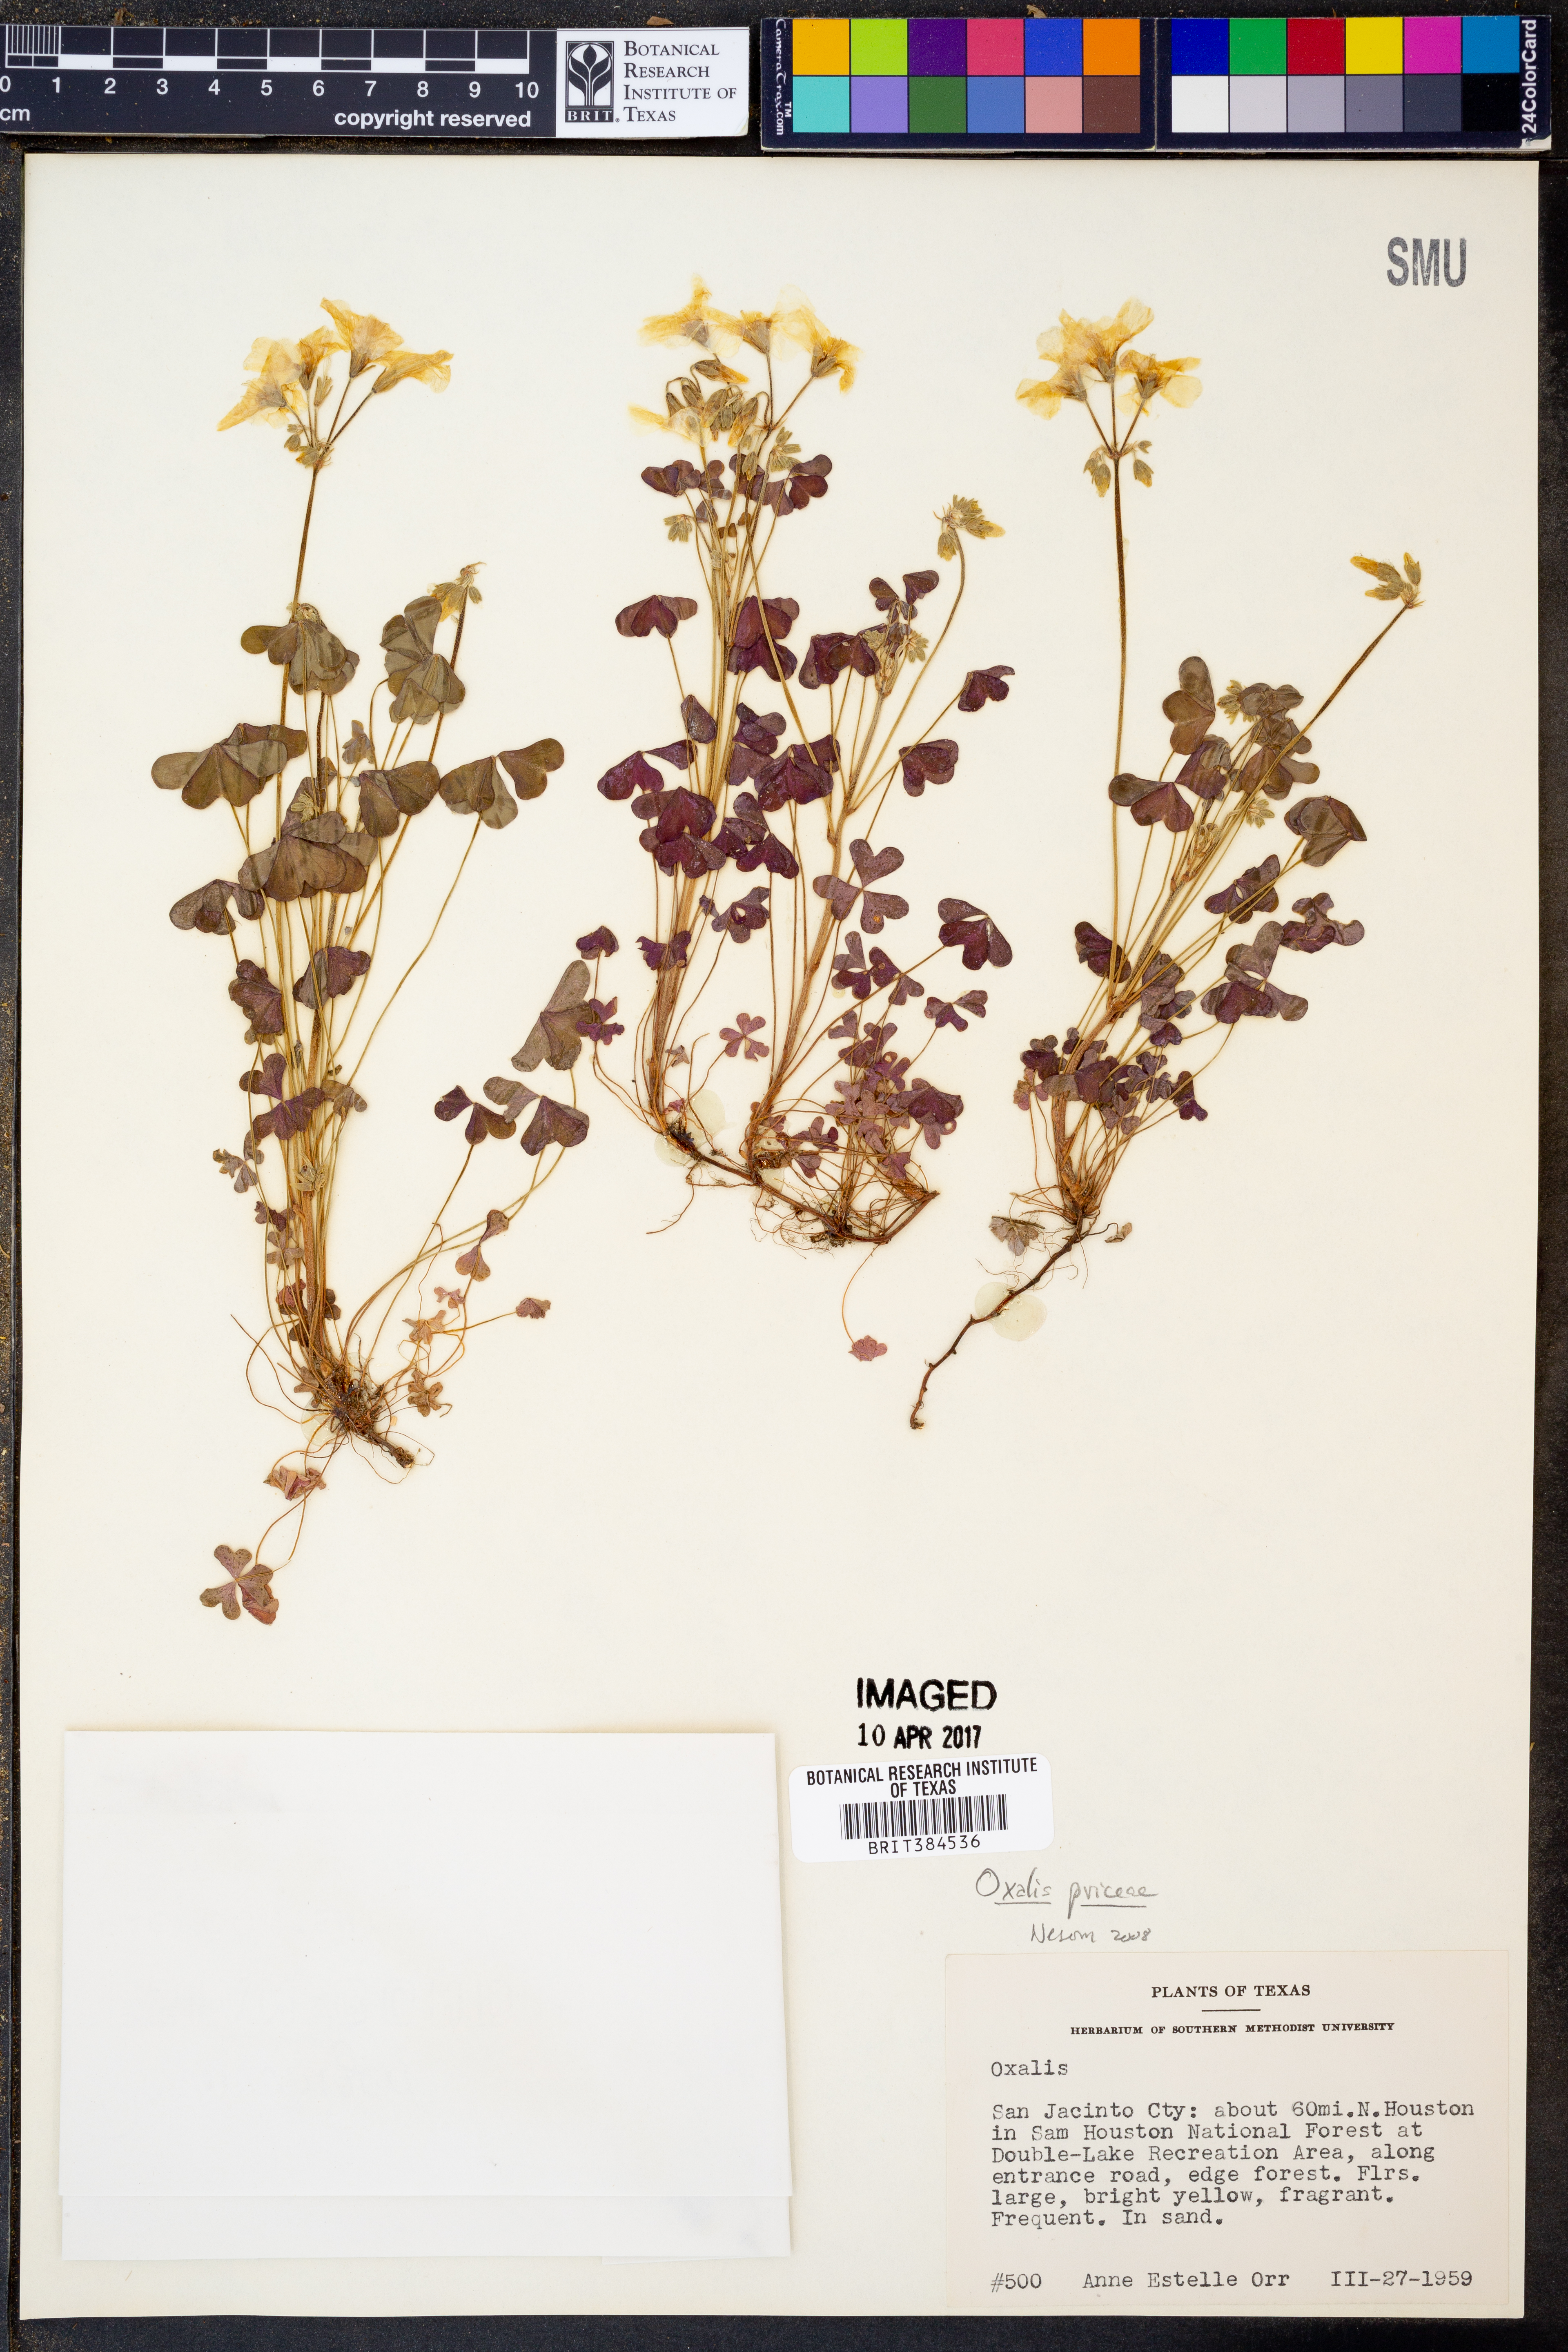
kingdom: Plantae
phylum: Tracheophyta
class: Magnoliopsida
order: Oxalidales
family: Oxalidaceae
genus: Oxalis
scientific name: Oxalis macrantha
